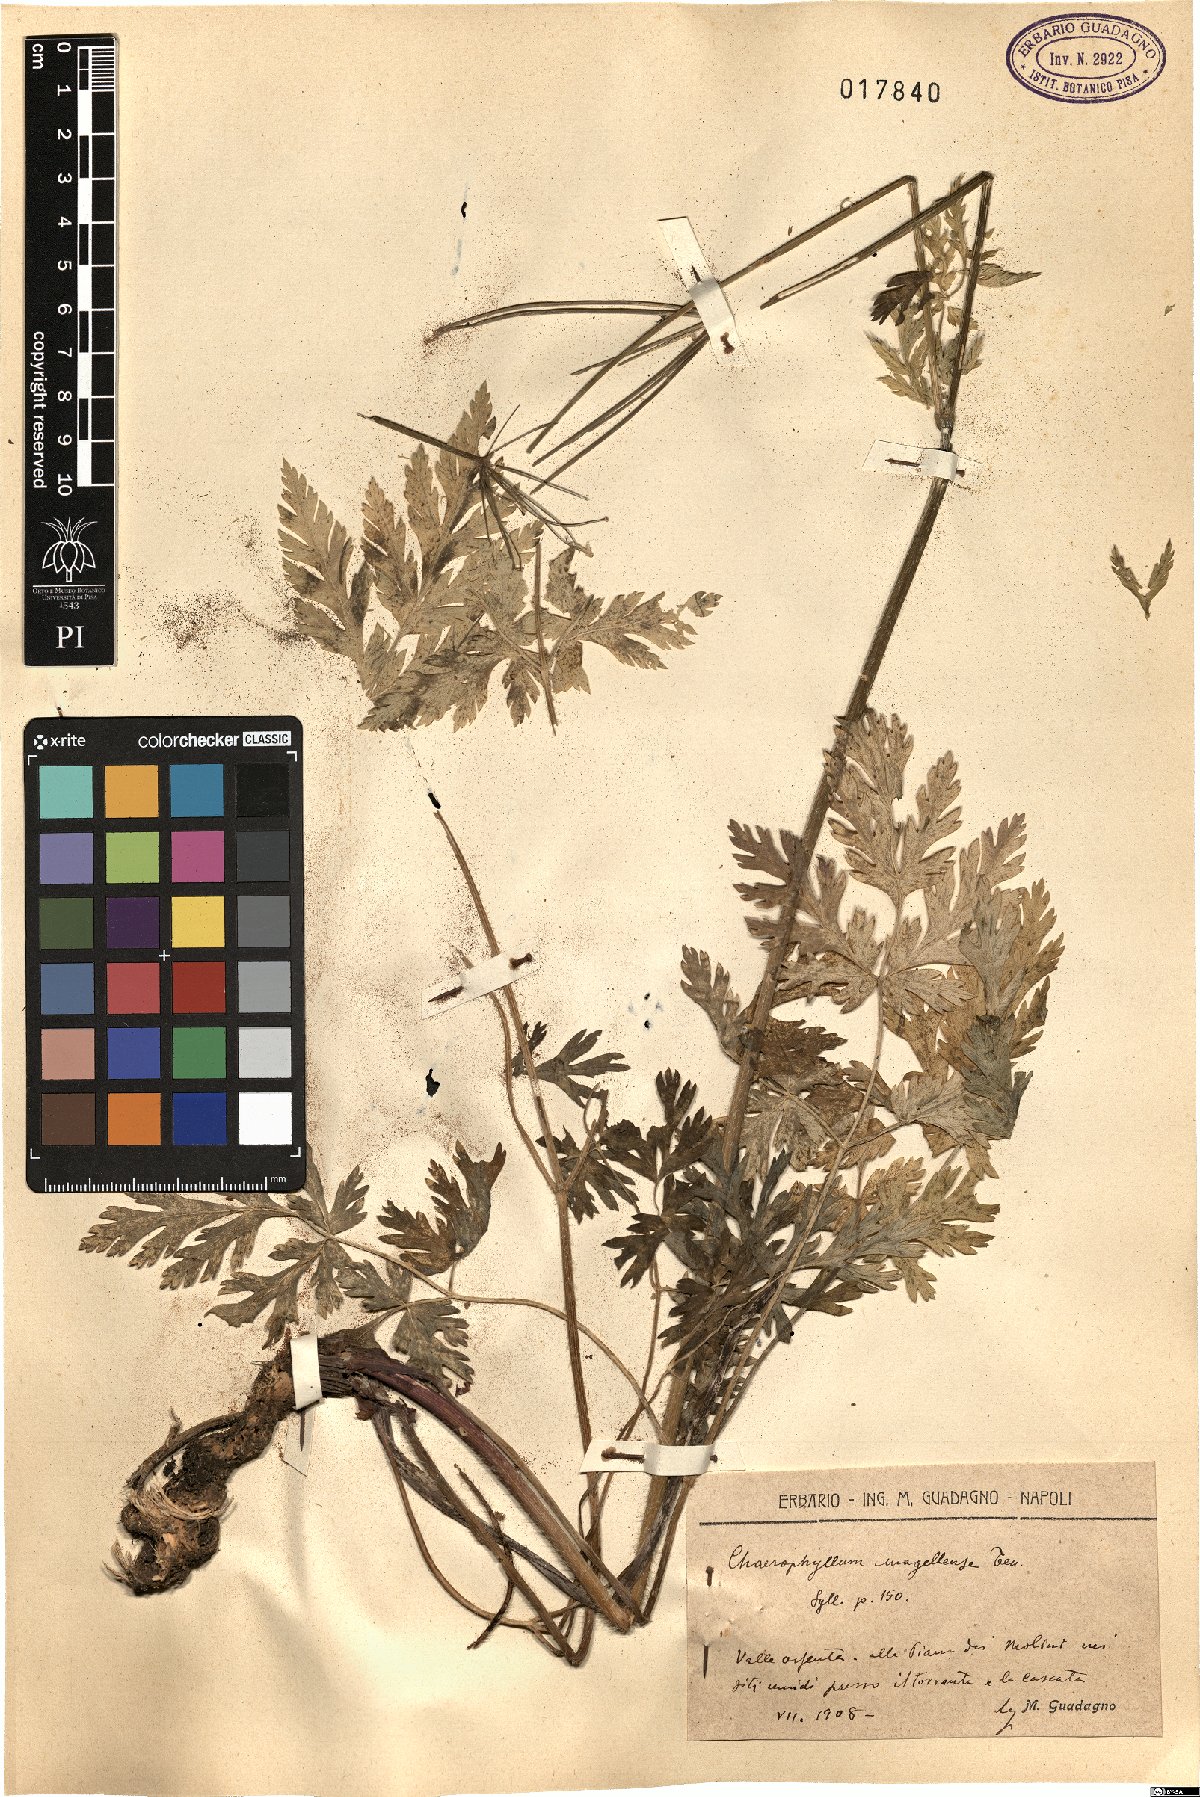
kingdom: Plantae
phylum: Tracheophyta
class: Magnoliopsida
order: Apiales
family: Apiaceae
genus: Chaerophyllum
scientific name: Chaerophyllum hirsutum
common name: Hairy chervil
